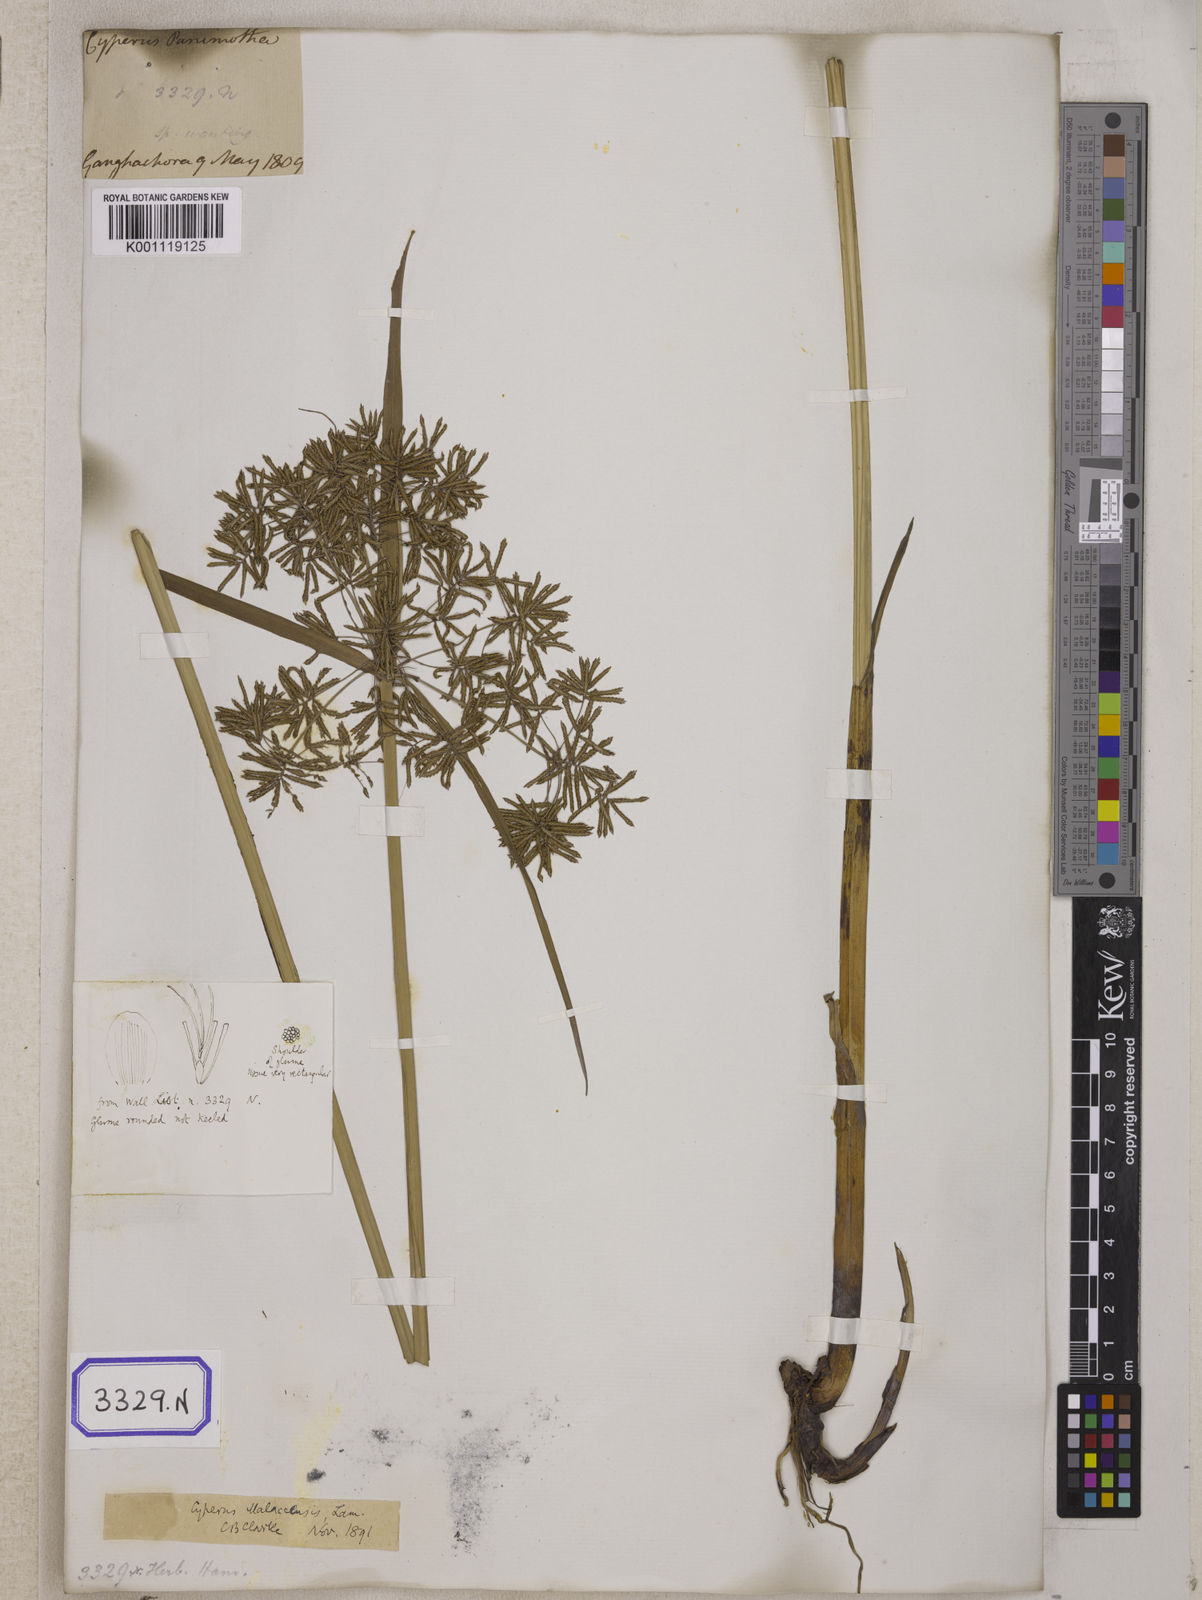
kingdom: Plantae
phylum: Tracheophyta
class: Liliopsida
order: Poales
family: Cyperaceae
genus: Cyperus
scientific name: Cyperus
